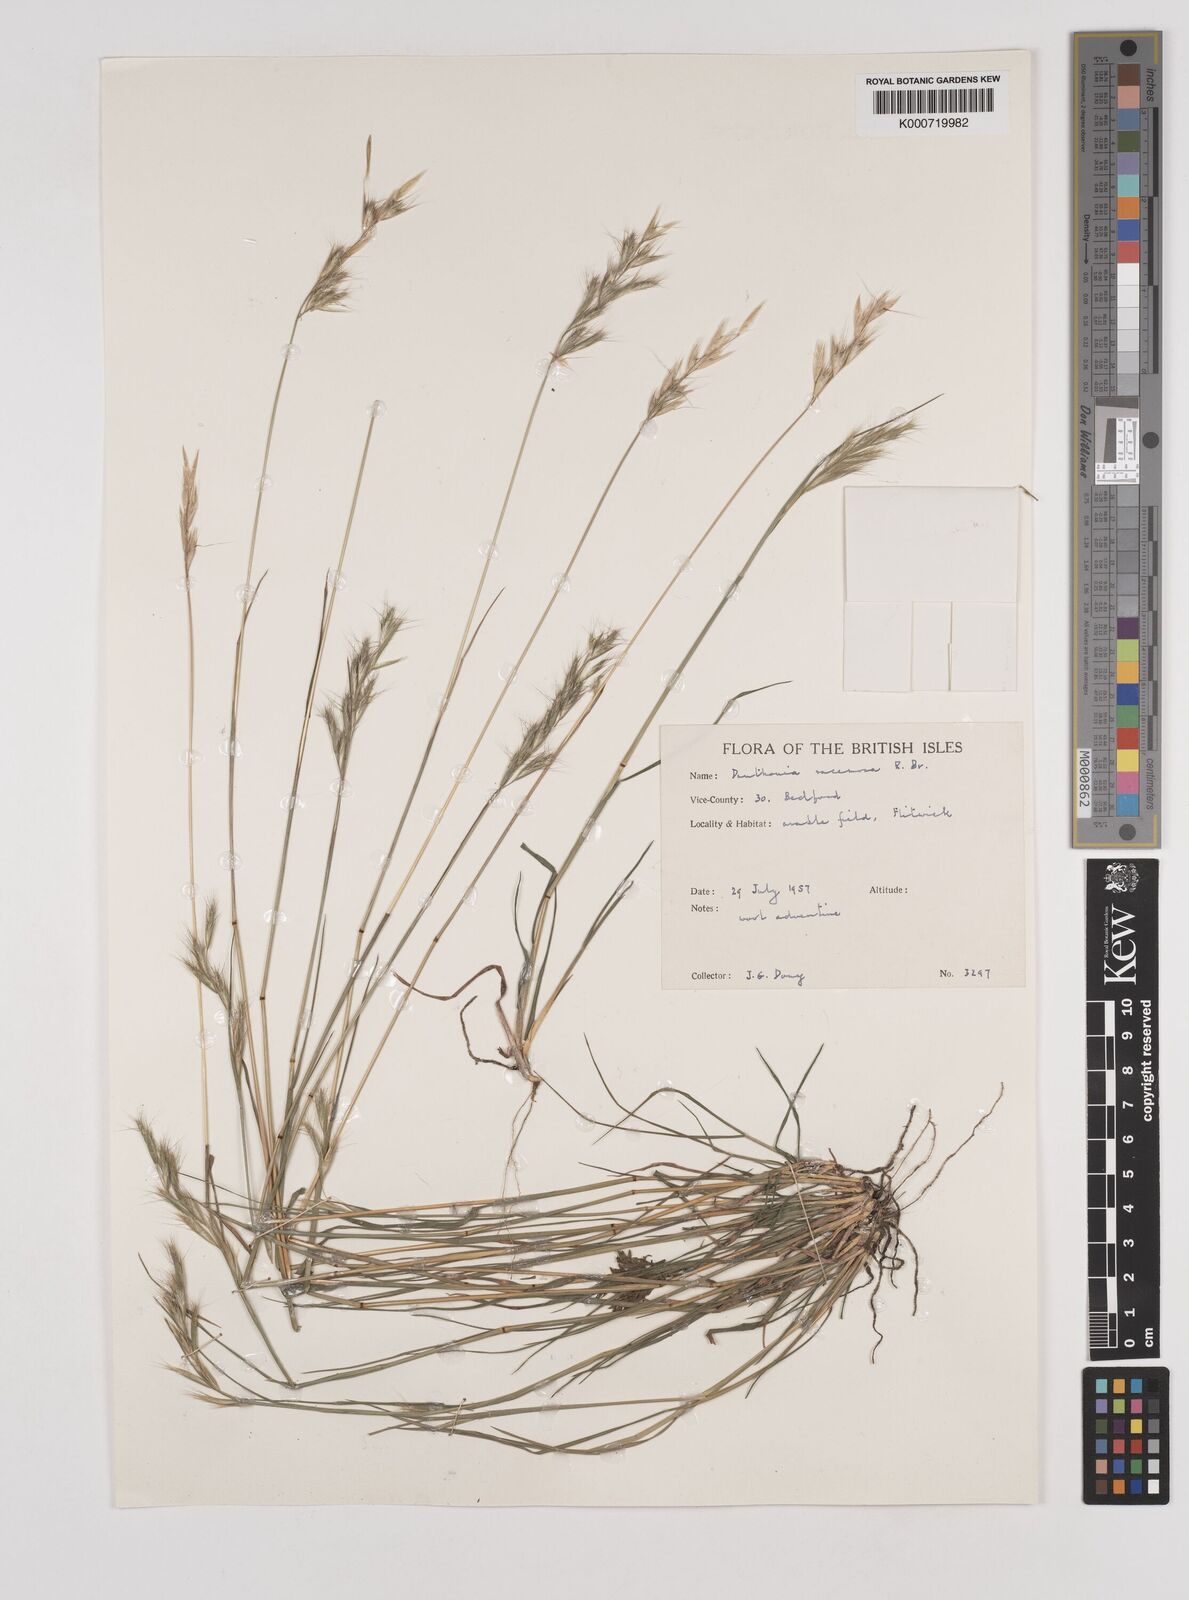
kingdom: Plantae
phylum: Tracheophyta
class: Liliopsida
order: Poales
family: Poaceae
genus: Rytidosperma
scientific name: Rytidosperma racemosum
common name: Wallaby-grass
